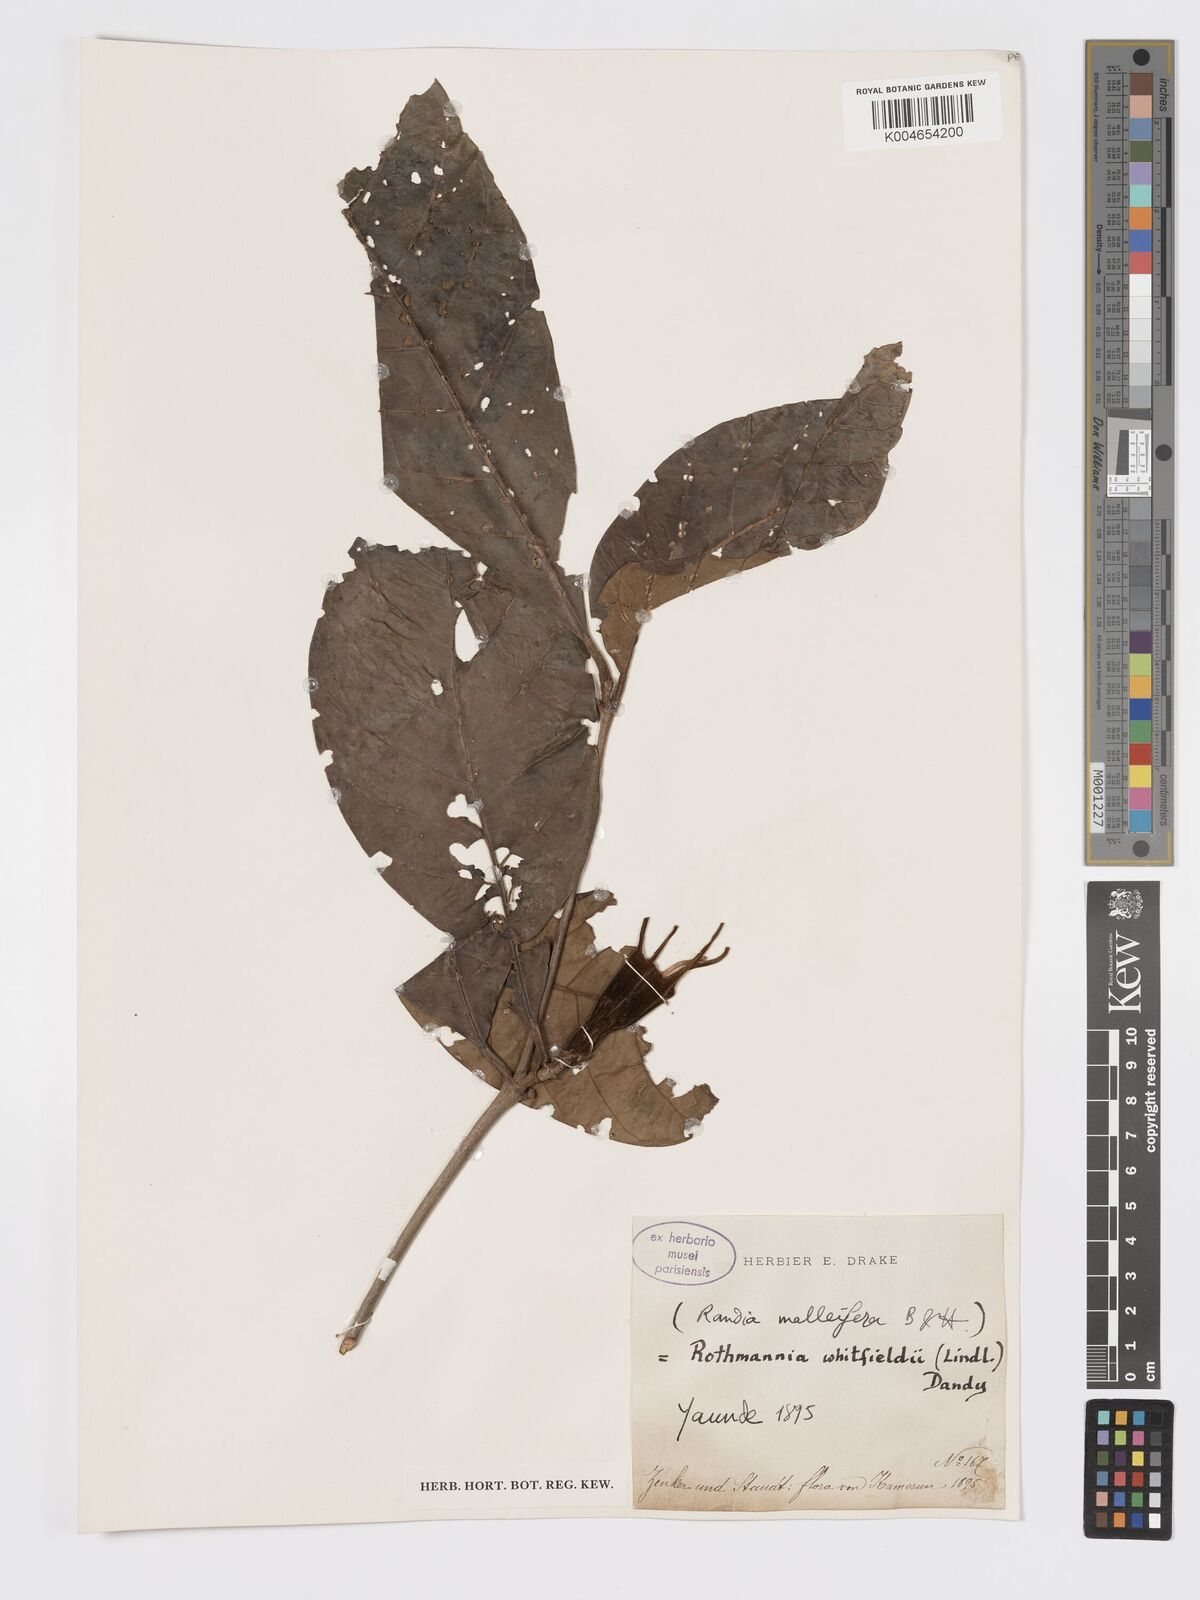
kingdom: Plantae
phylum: Tracheophyta
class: Magnoliopsida
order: Gentianales
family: Rubiaceae
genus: Rothmannia
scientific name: Rothmannia whitfieldii
